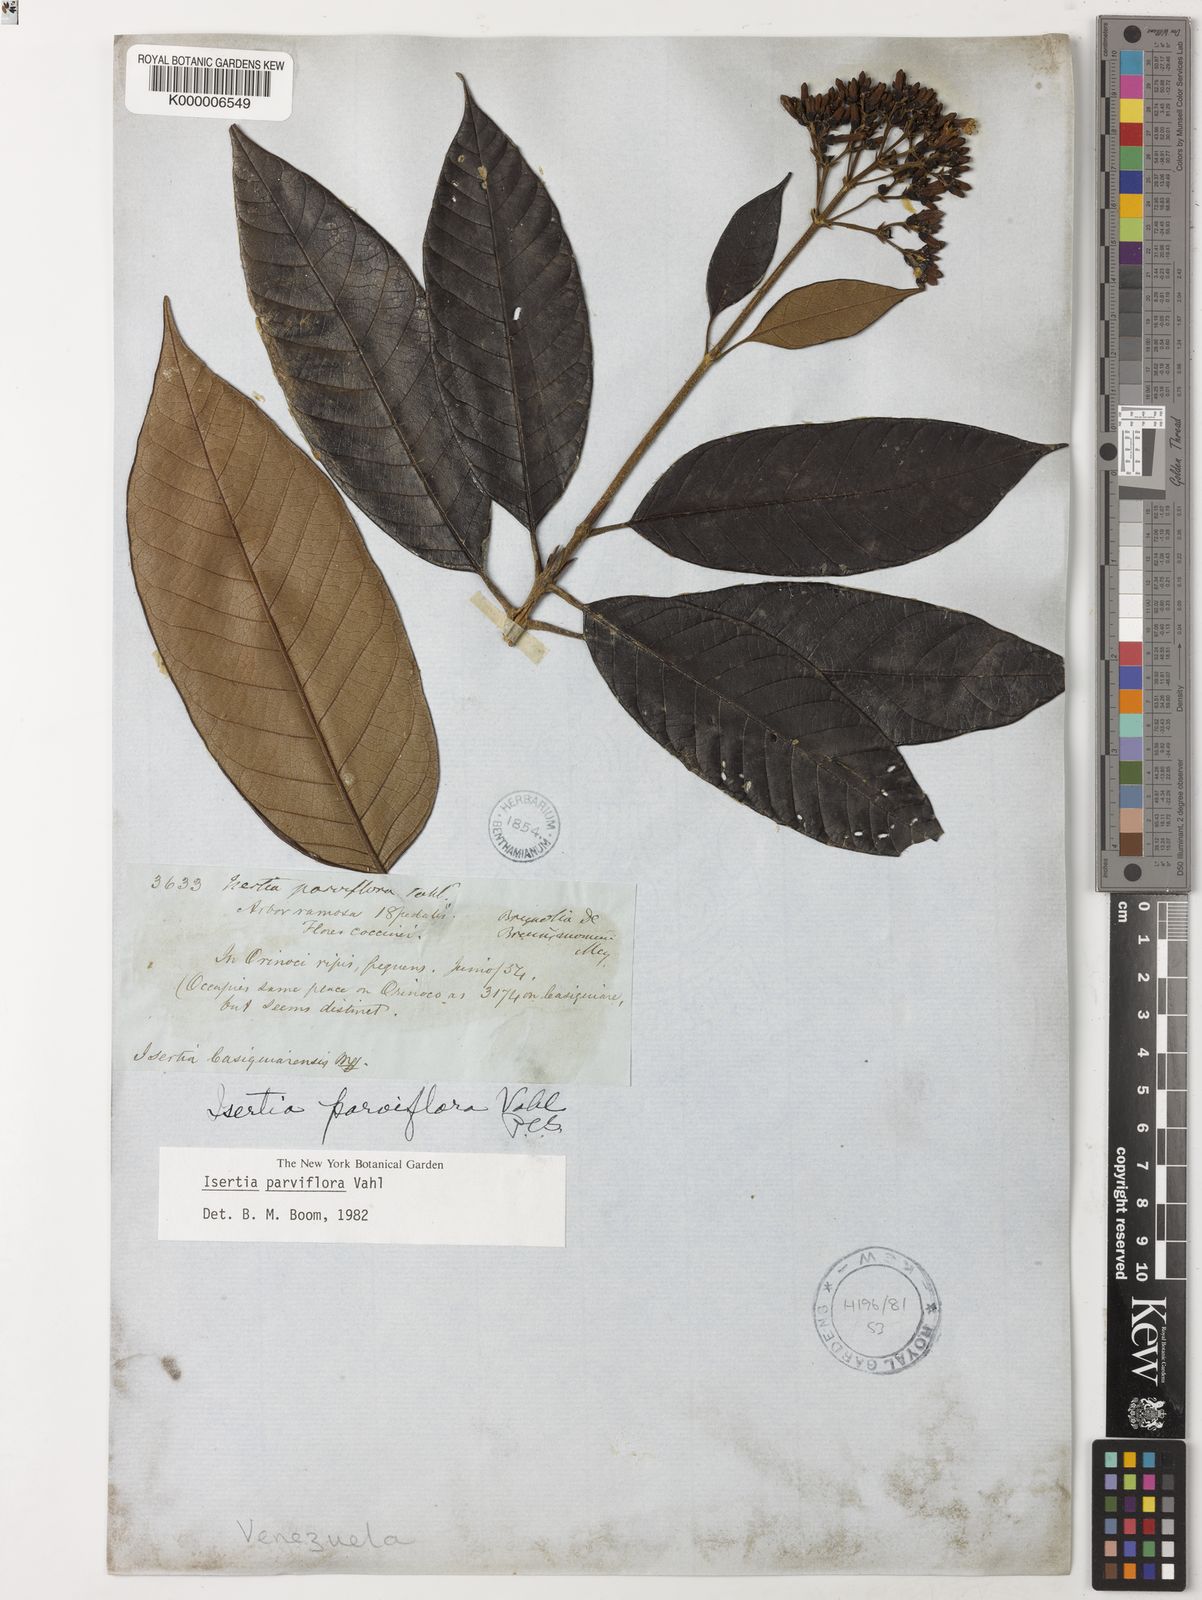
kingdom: Plantae
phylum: Tracheophyta
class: Magnoliopsida
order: Gentianales
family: Rubiaceae
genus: Isertia
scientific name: Isertia
